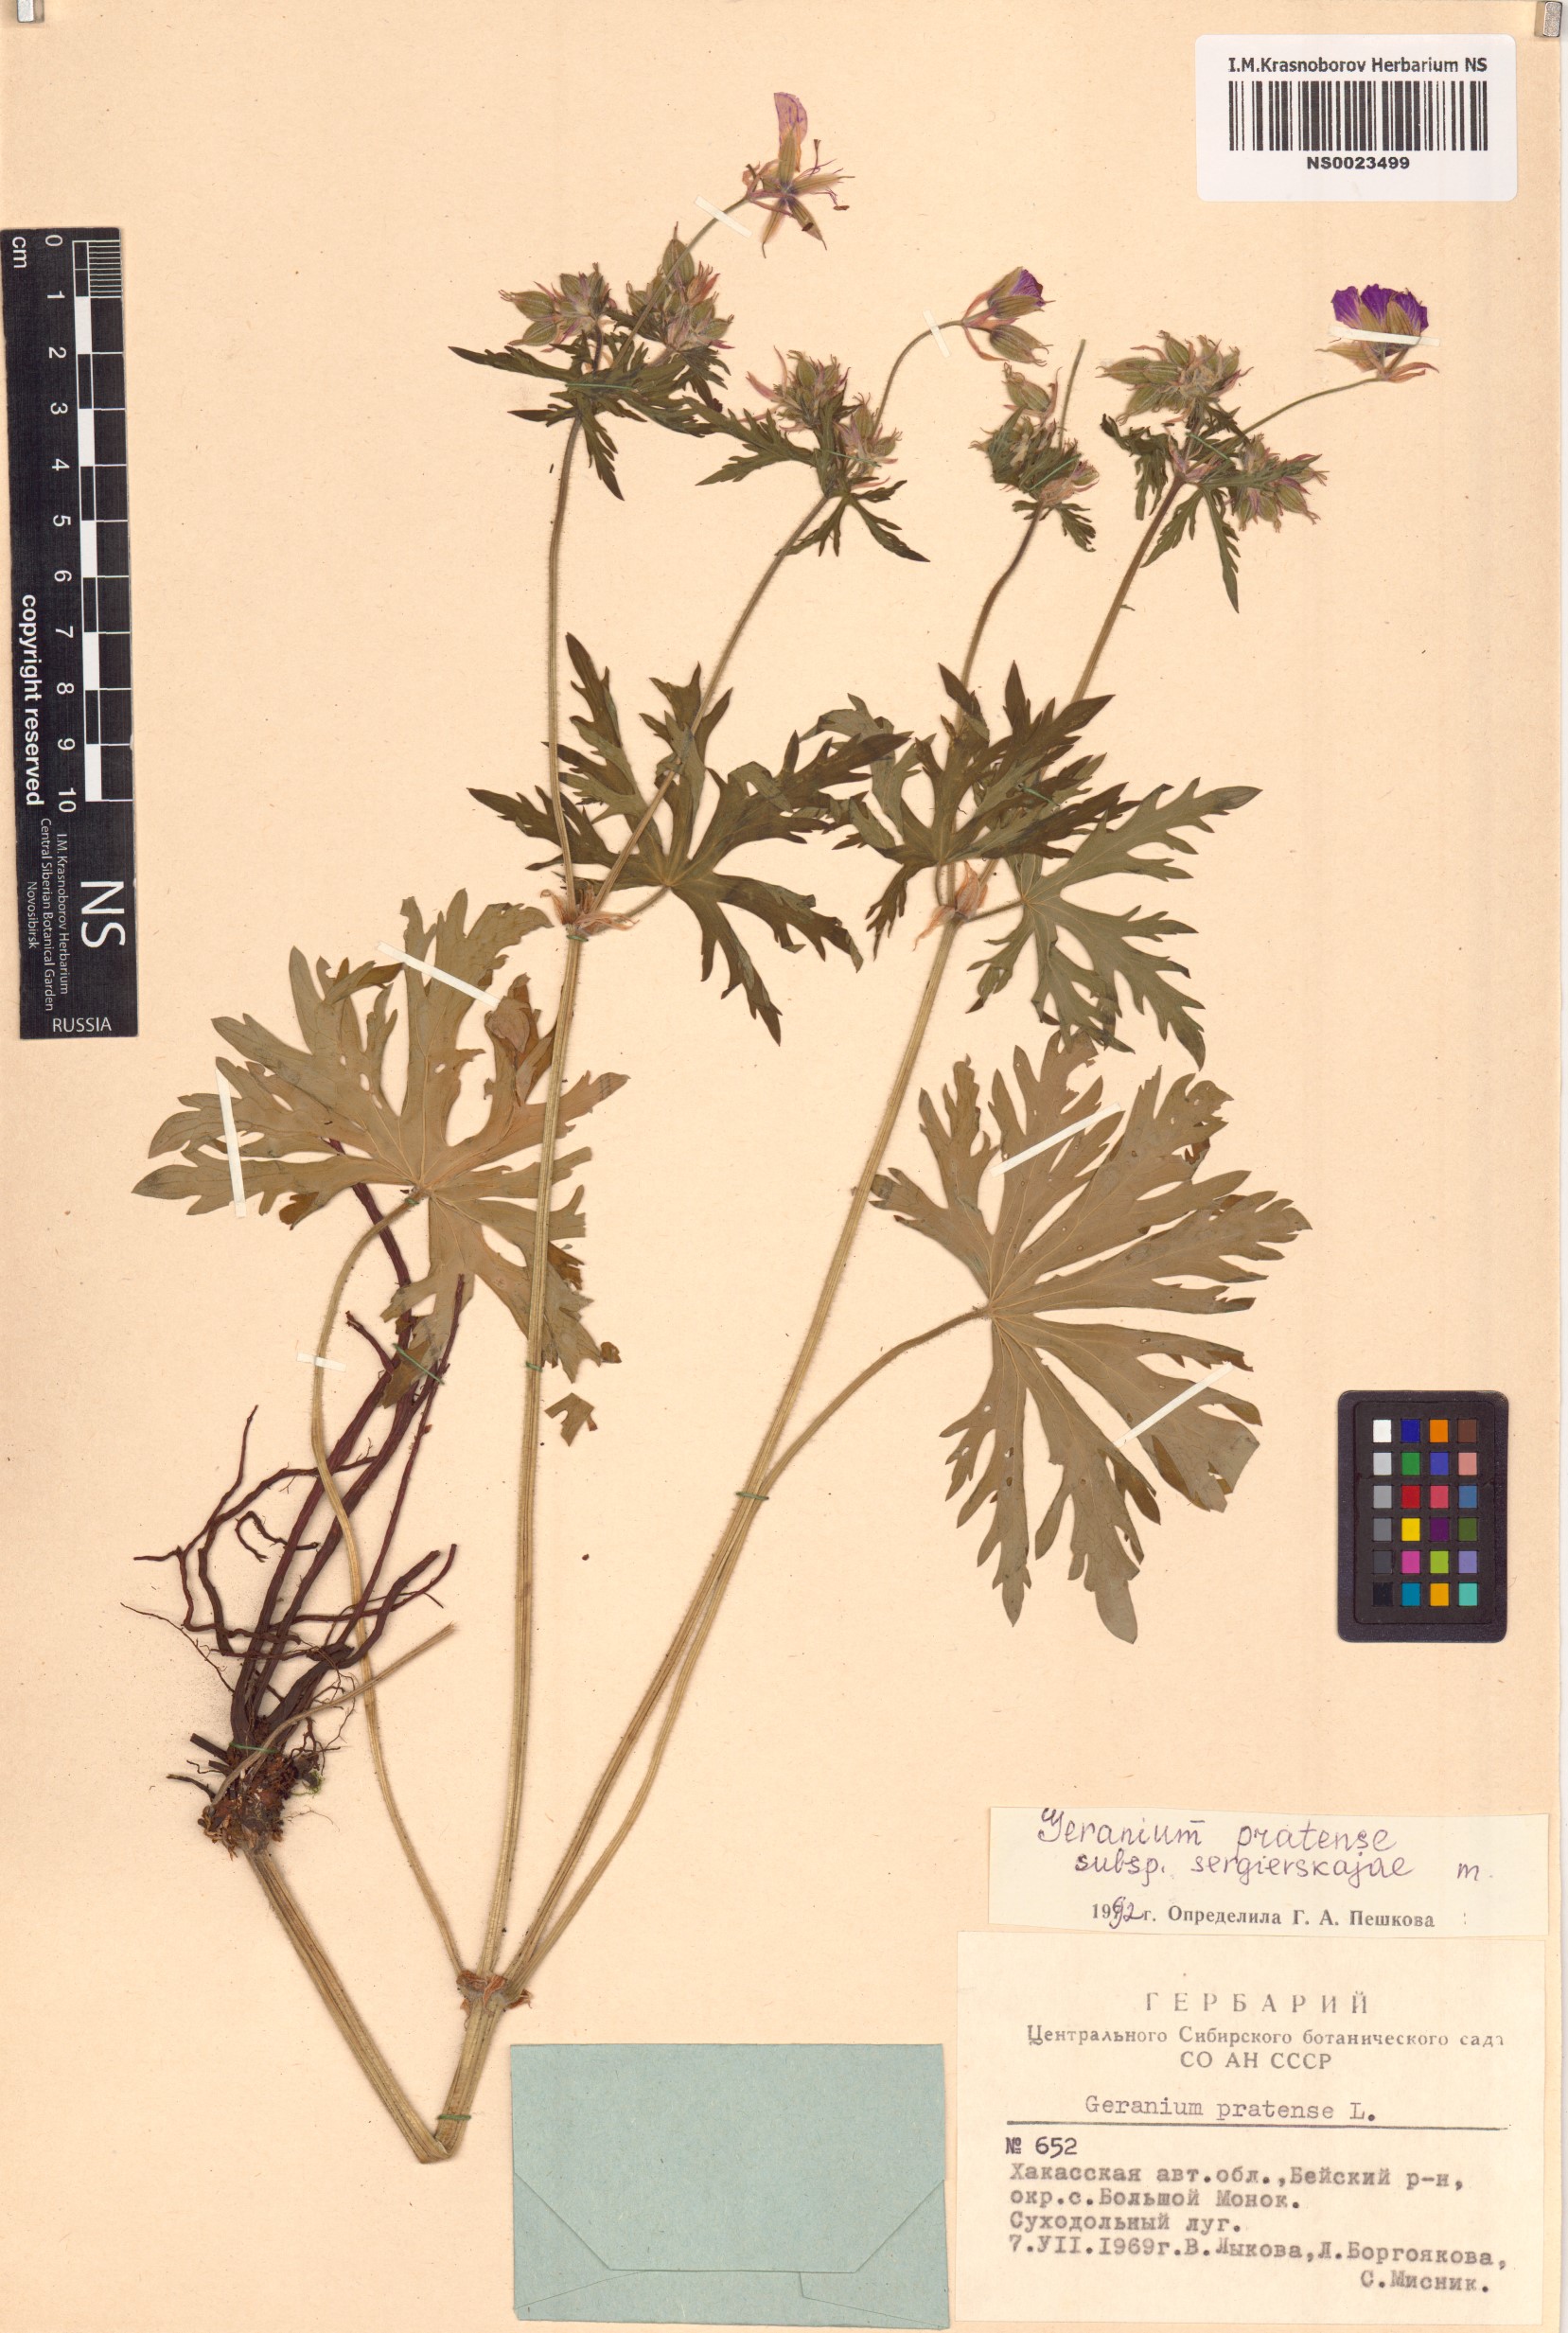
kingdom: Plantae
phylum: Tracheophyta
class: Magnoliopsida
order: Geraniales
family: Geraniaceae
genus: Geranium
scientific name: Geranium pratense
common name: Meadow crane's-bill
